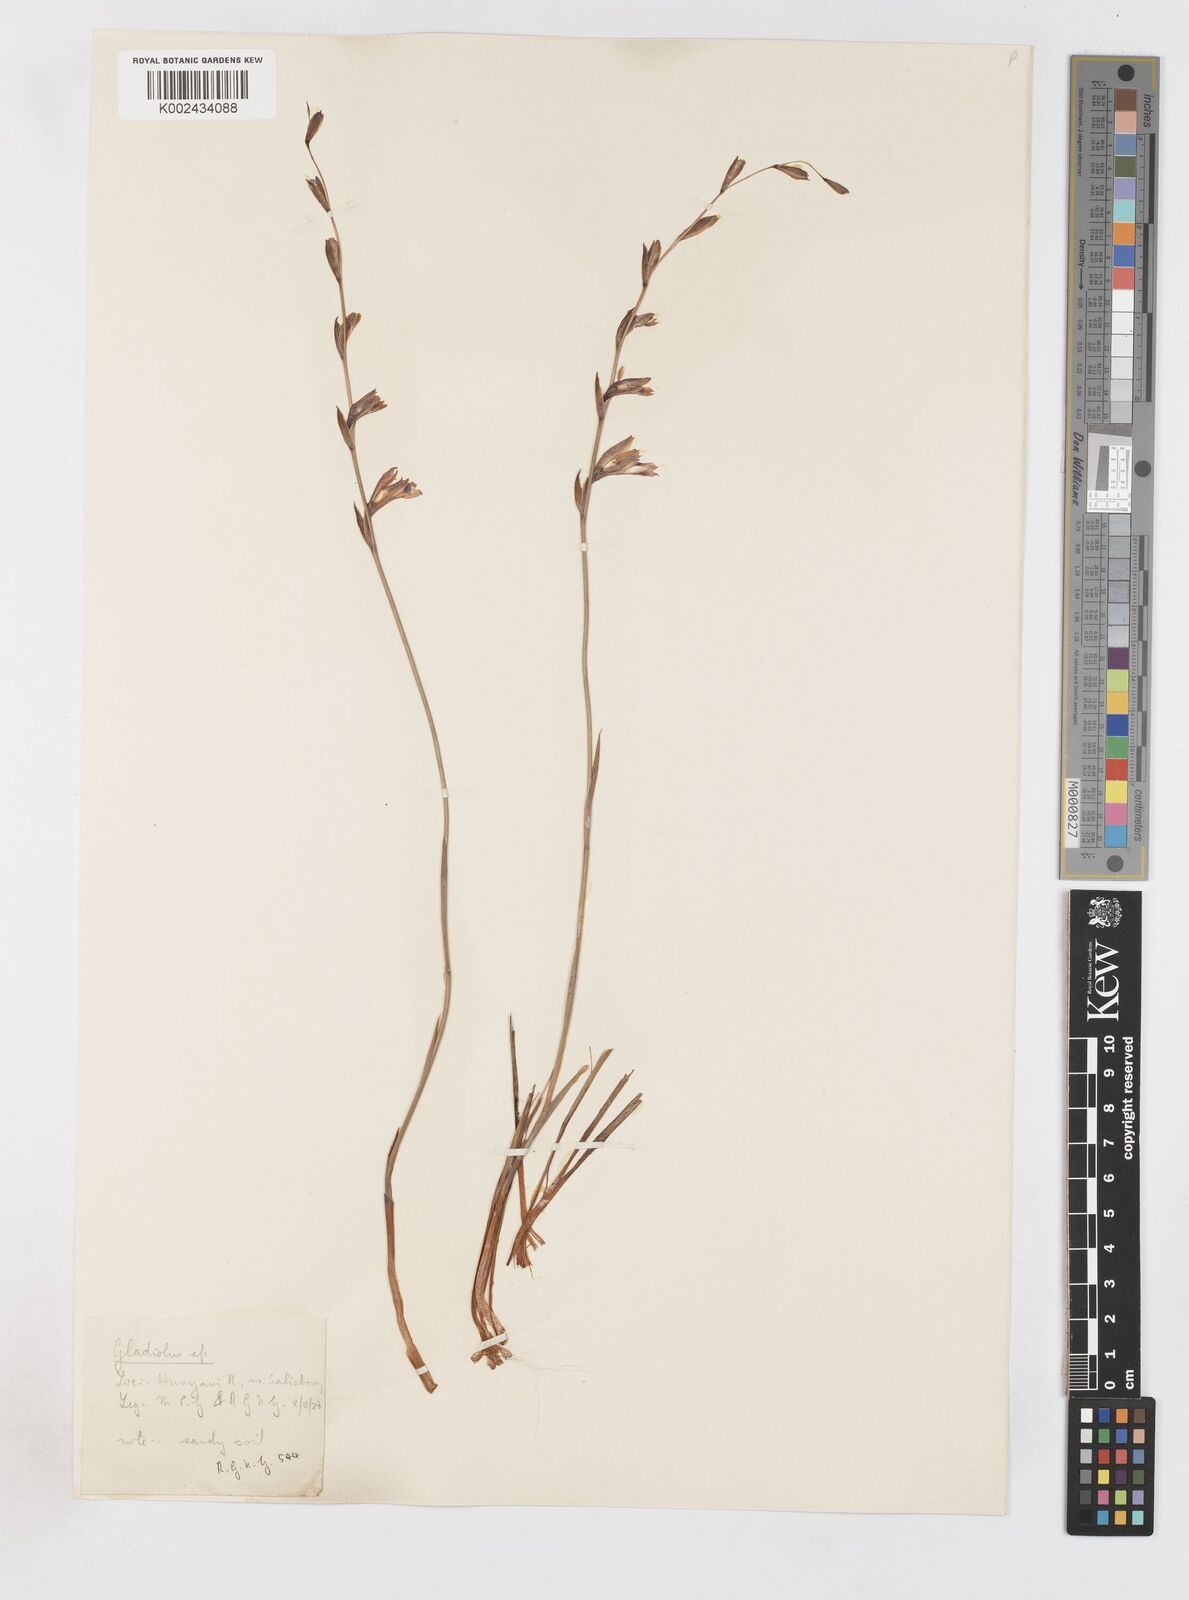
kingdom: Plantae
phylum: Tracheophyta
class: Liliopsida
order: Asparagales
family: Iridaceae
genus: Gladiolus
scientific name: Gladiolus atropurpureus
